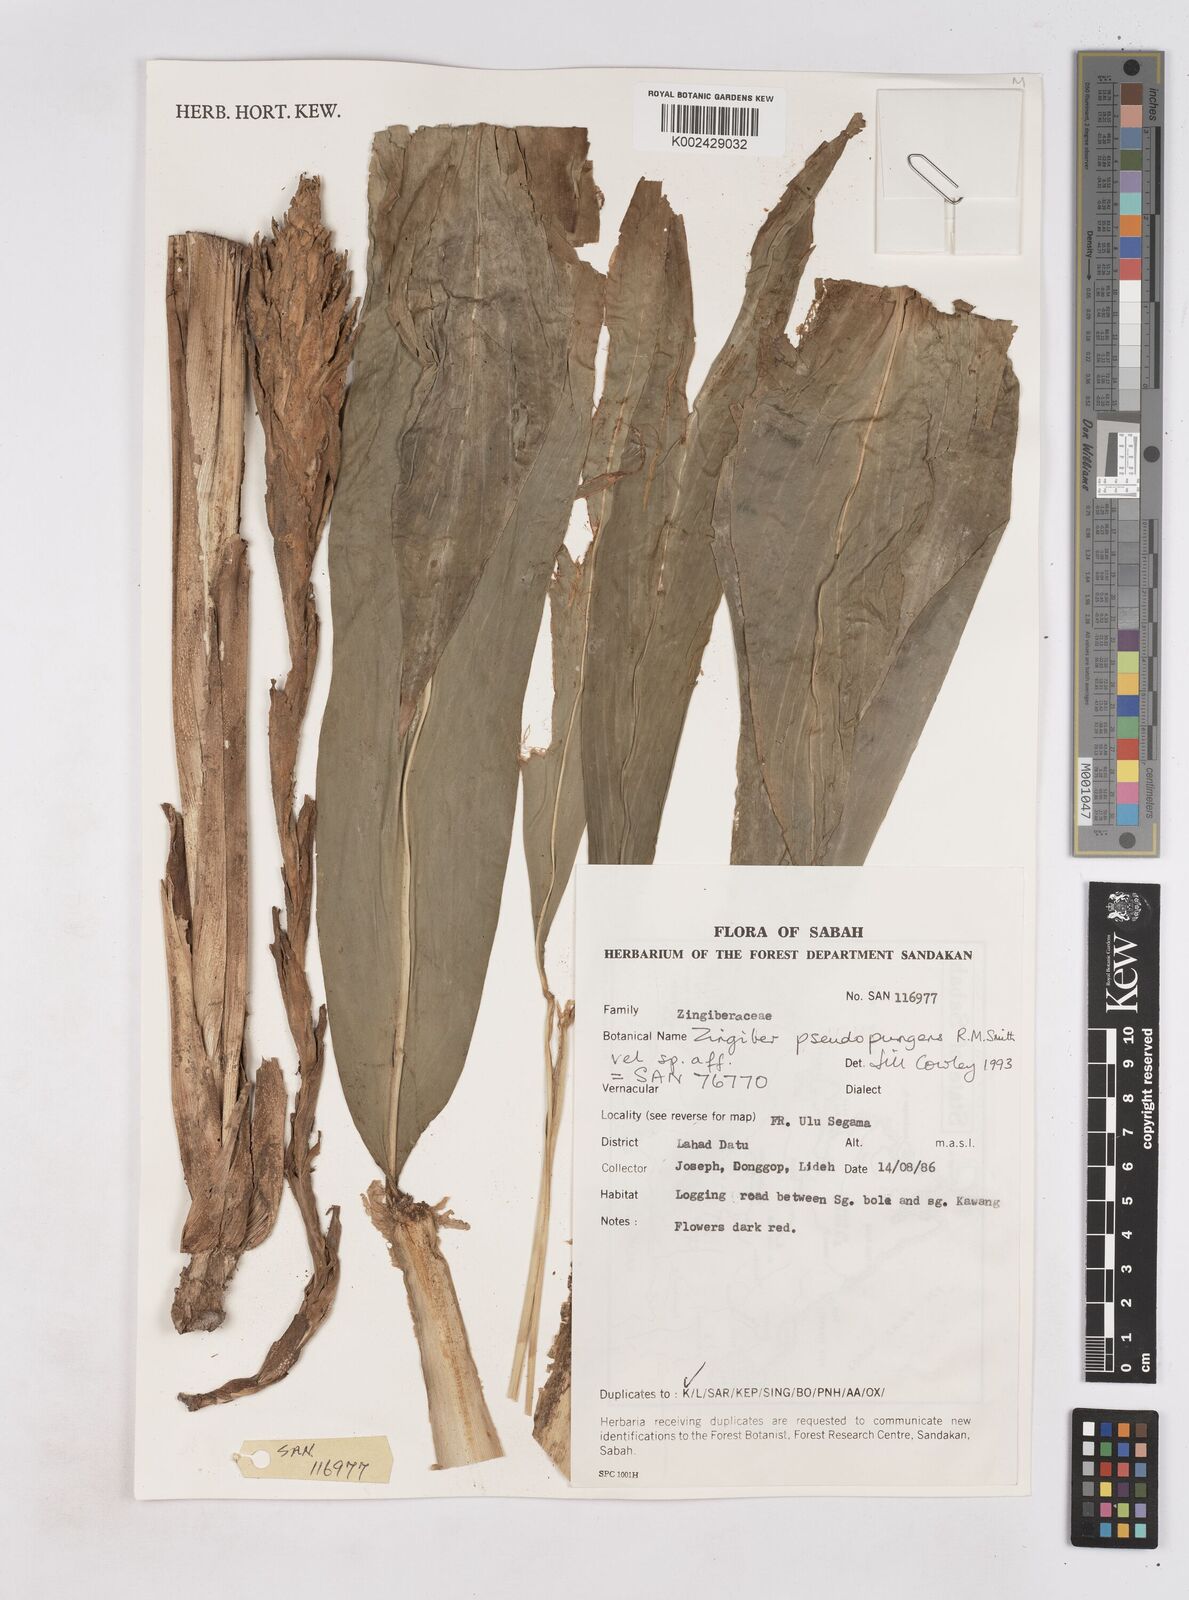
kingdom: Plantae
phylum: Tracheophyta
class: Liliopsida
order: Zingiberales
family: Zingiberaceae
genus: Zingiber
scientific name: Zingiber pseudopungens
